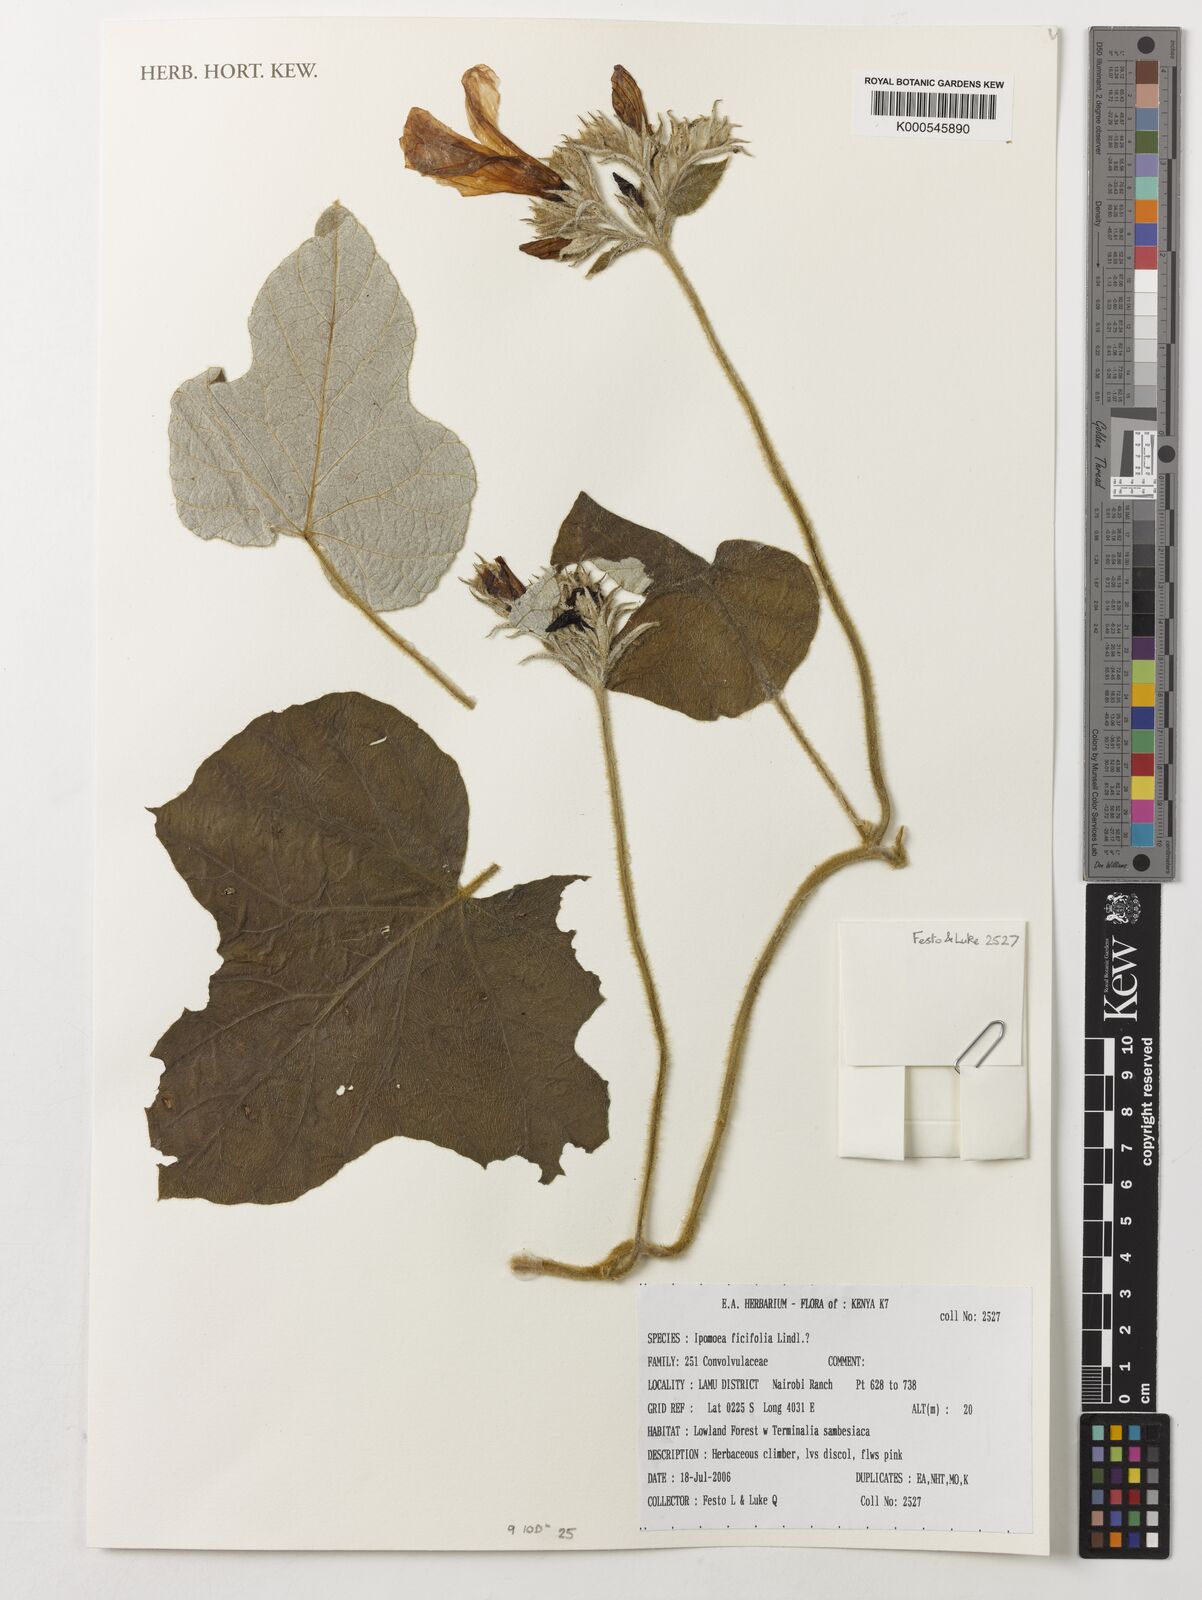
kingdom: Plantae
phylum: Tracheophyta
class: Magnoliopsida
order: Solanales
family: Convolvulaceae
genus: Ipomoea
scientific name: Ipomoea ficifolia
